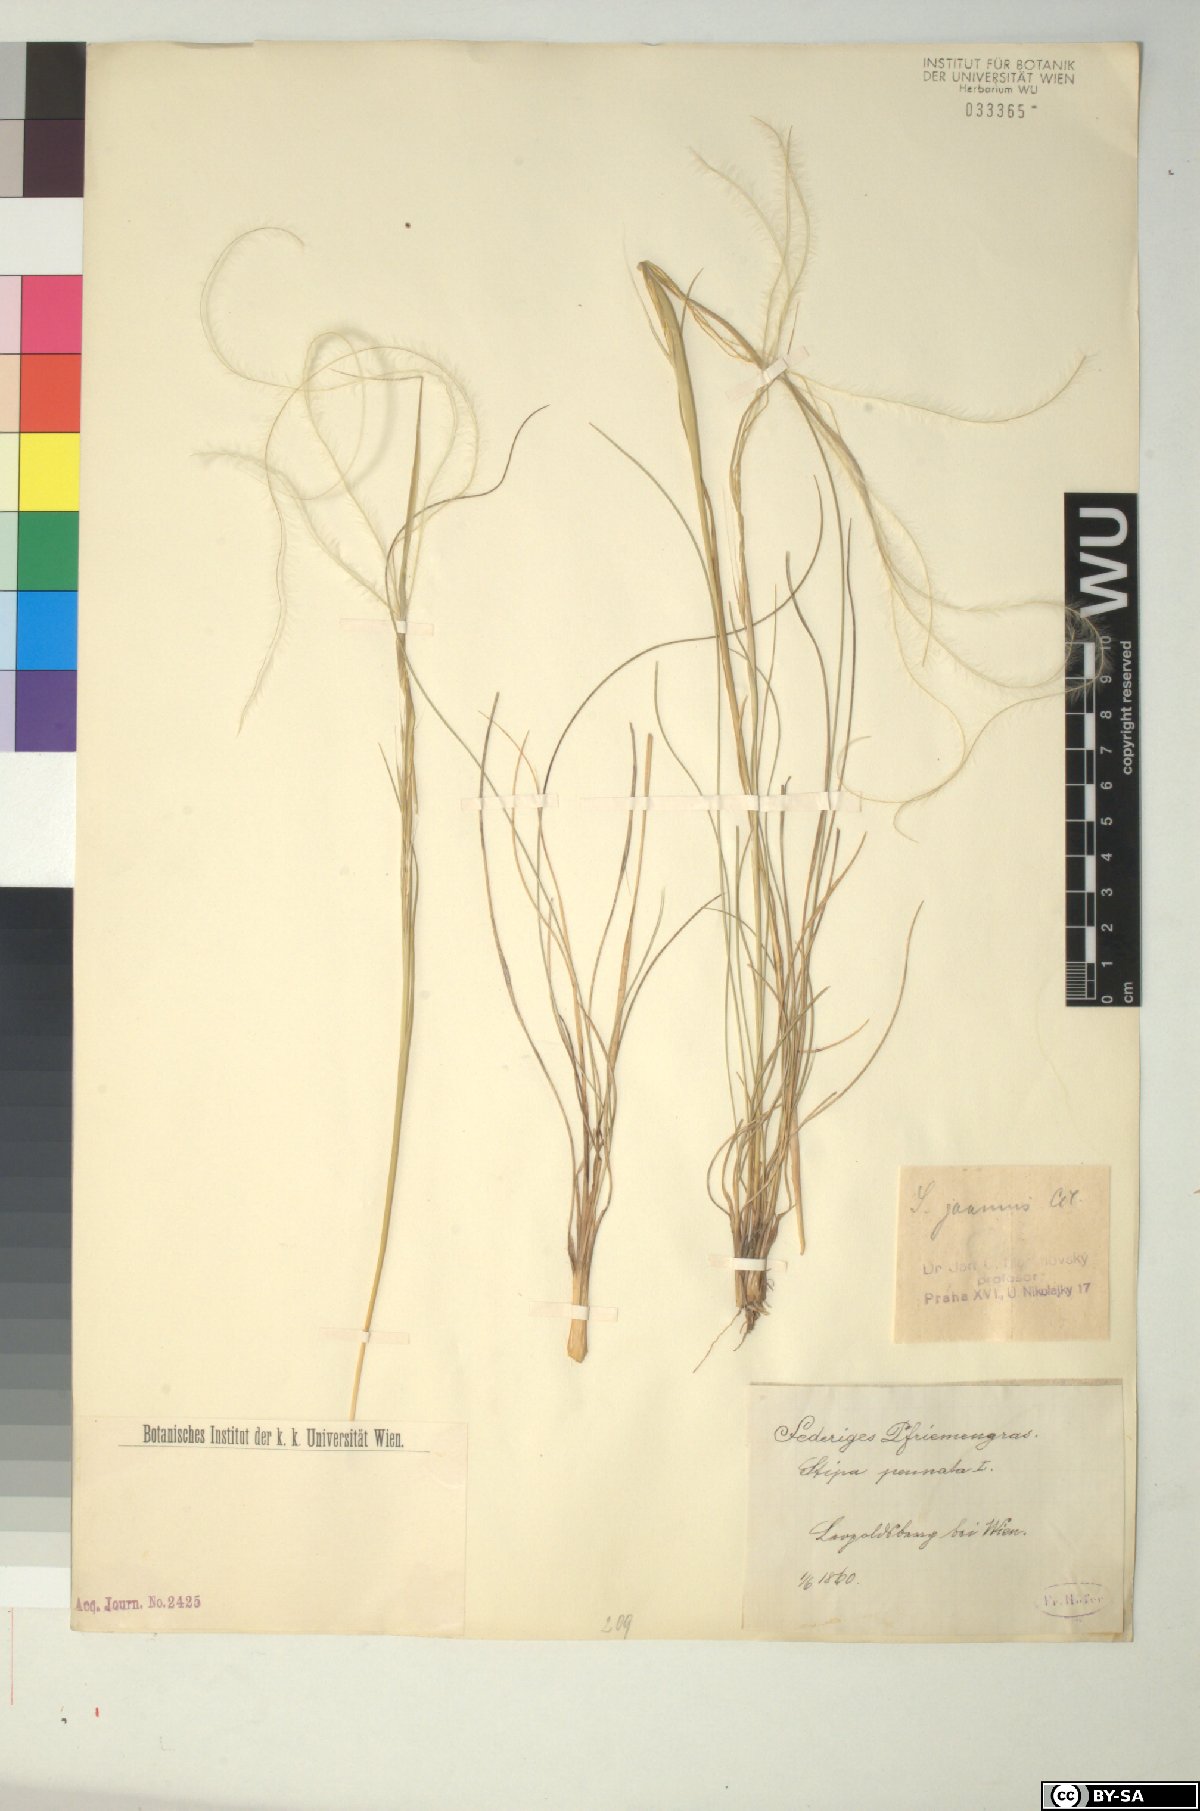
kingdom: Plantae
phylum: Tracheophyta
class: Liliopsida
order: Poales
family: Poaceae
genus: Stipa
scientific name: Stipa pennata
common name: European feather grass
